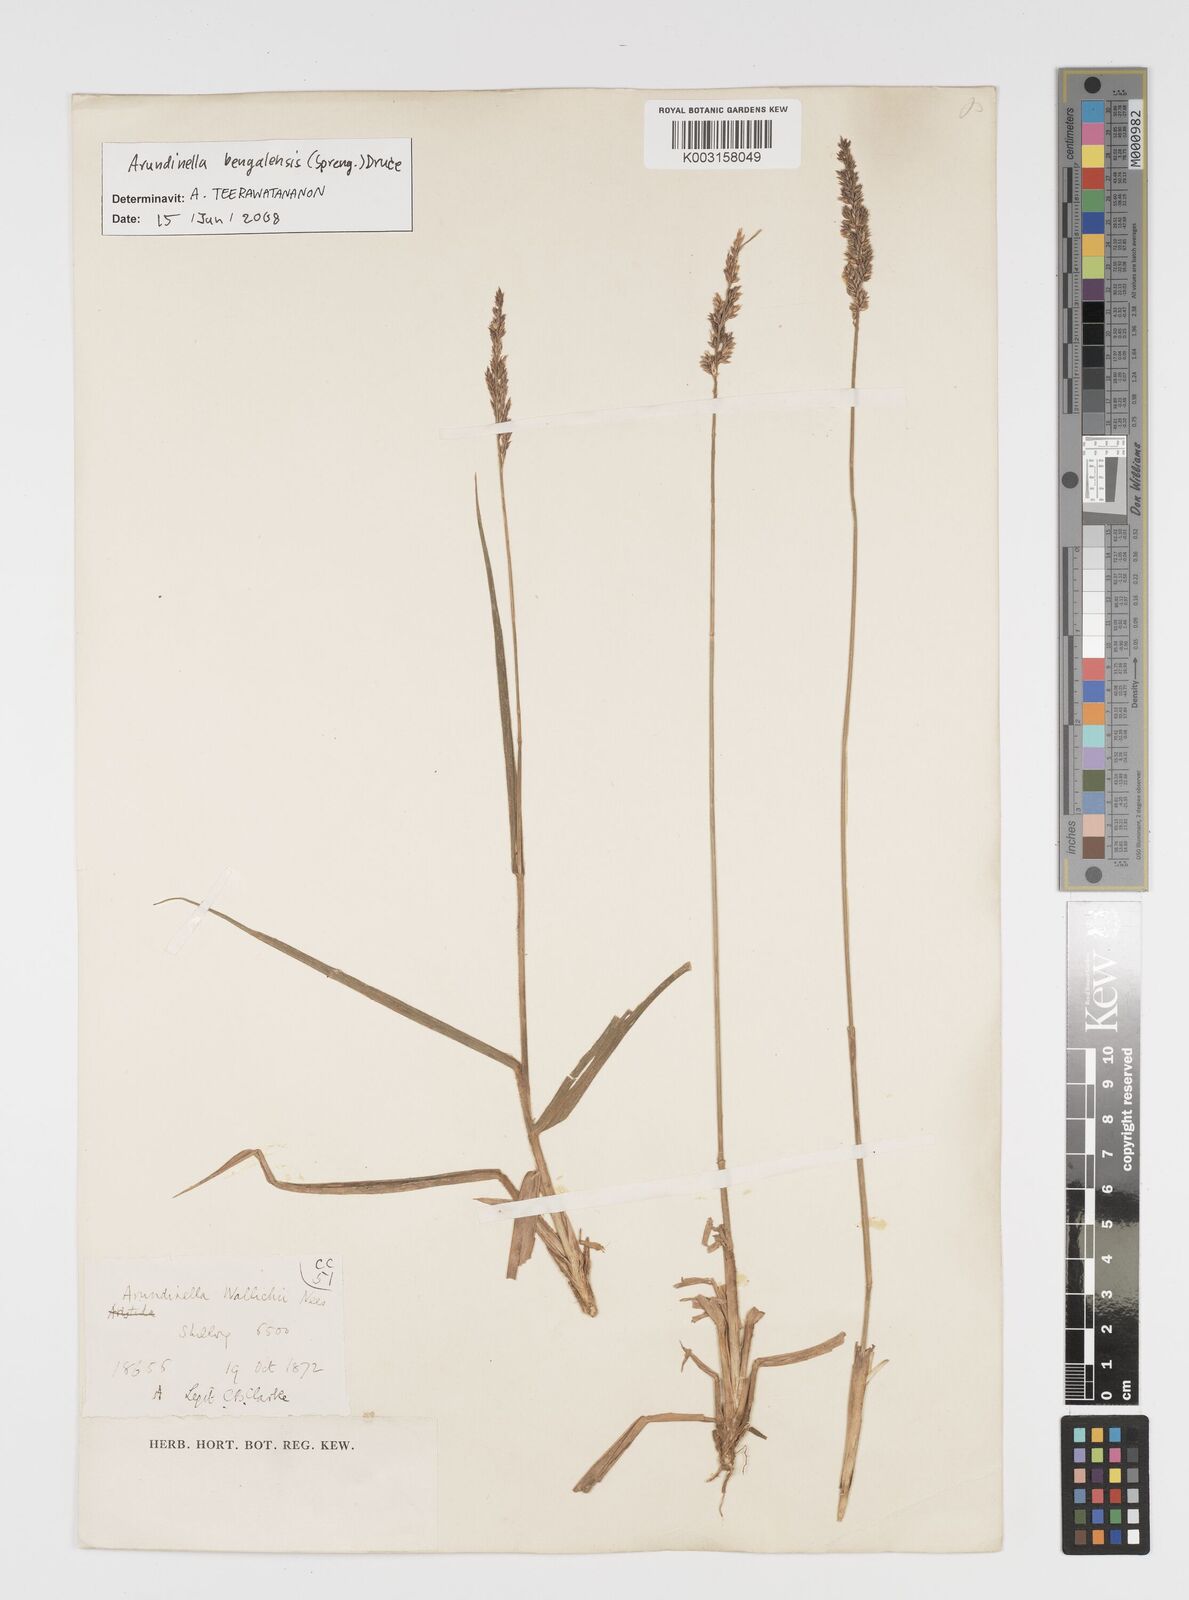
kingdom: Plantae
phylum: Tracheophyta
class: Liliopsida
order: Poales
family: Poaceae
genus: Arundinella
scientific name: Arundinella bengalensis
